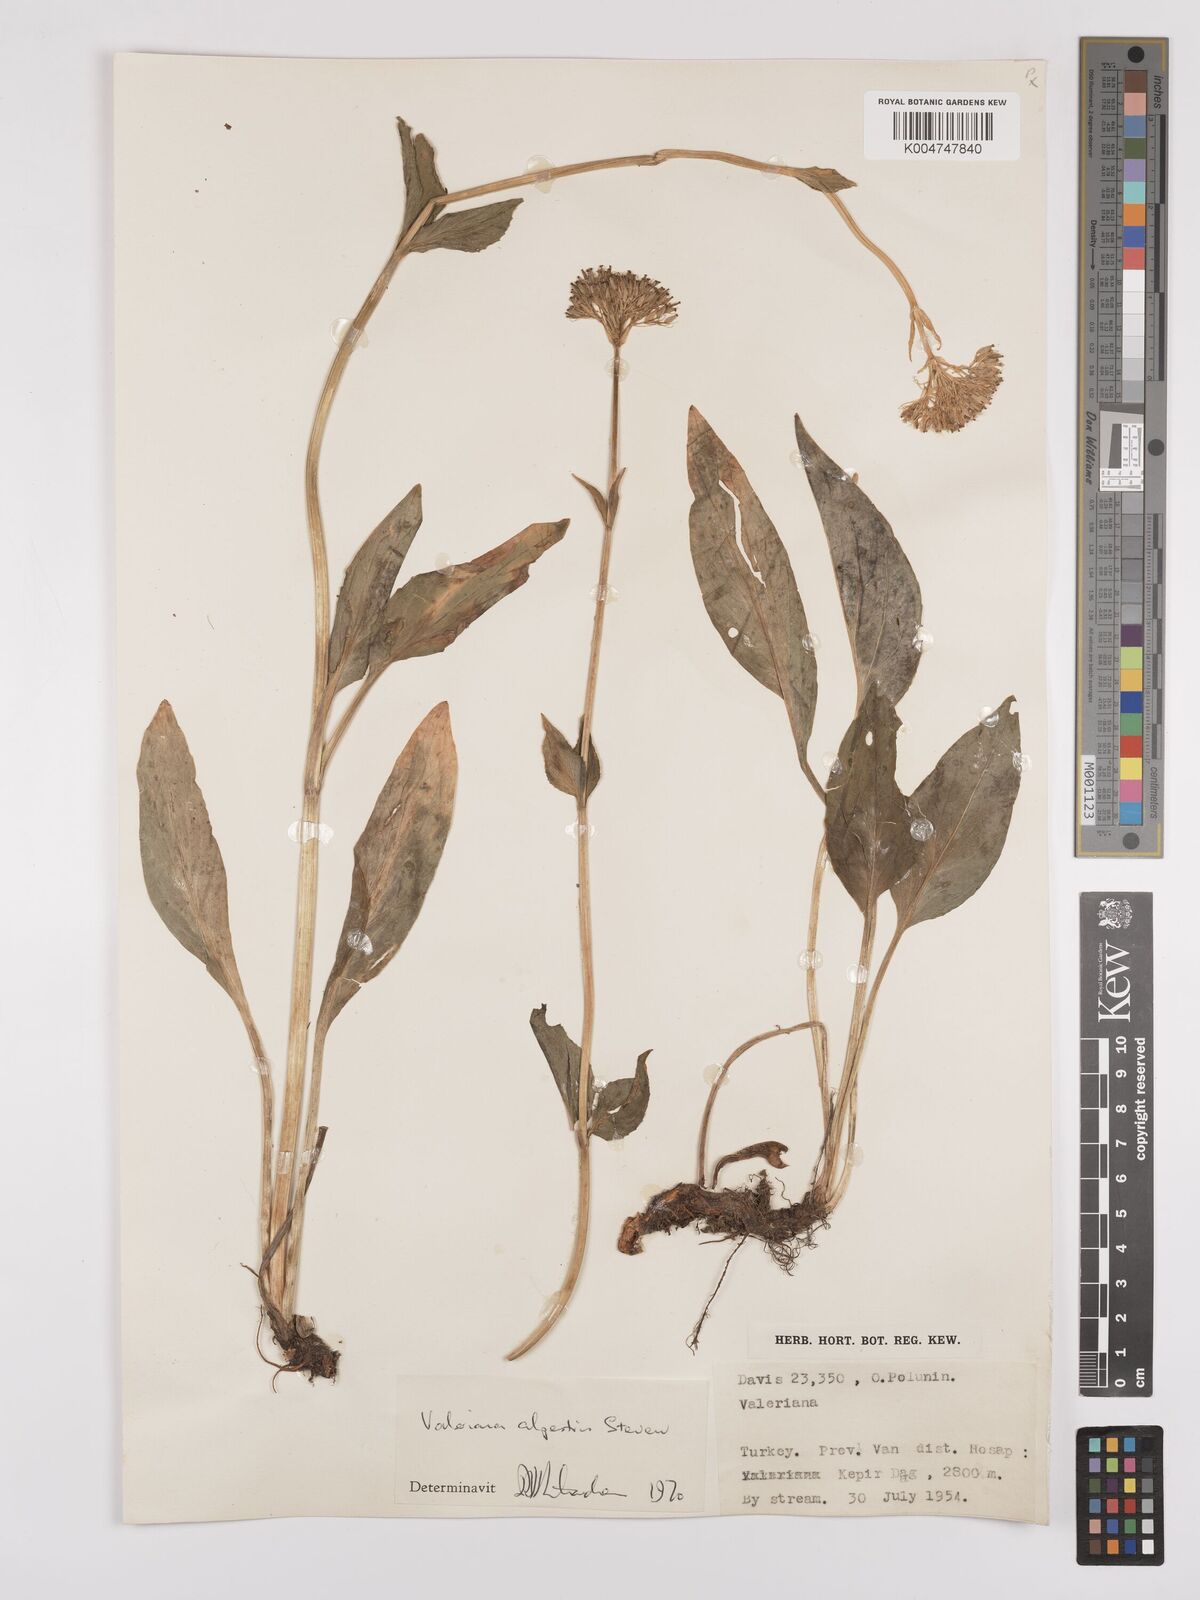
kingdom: Plantae
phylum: Tracheophyta
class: Magnoliopsida
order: Dipsacales
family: Caprifoliaceae
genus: Valeriana
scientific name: Valeriana alpestris
